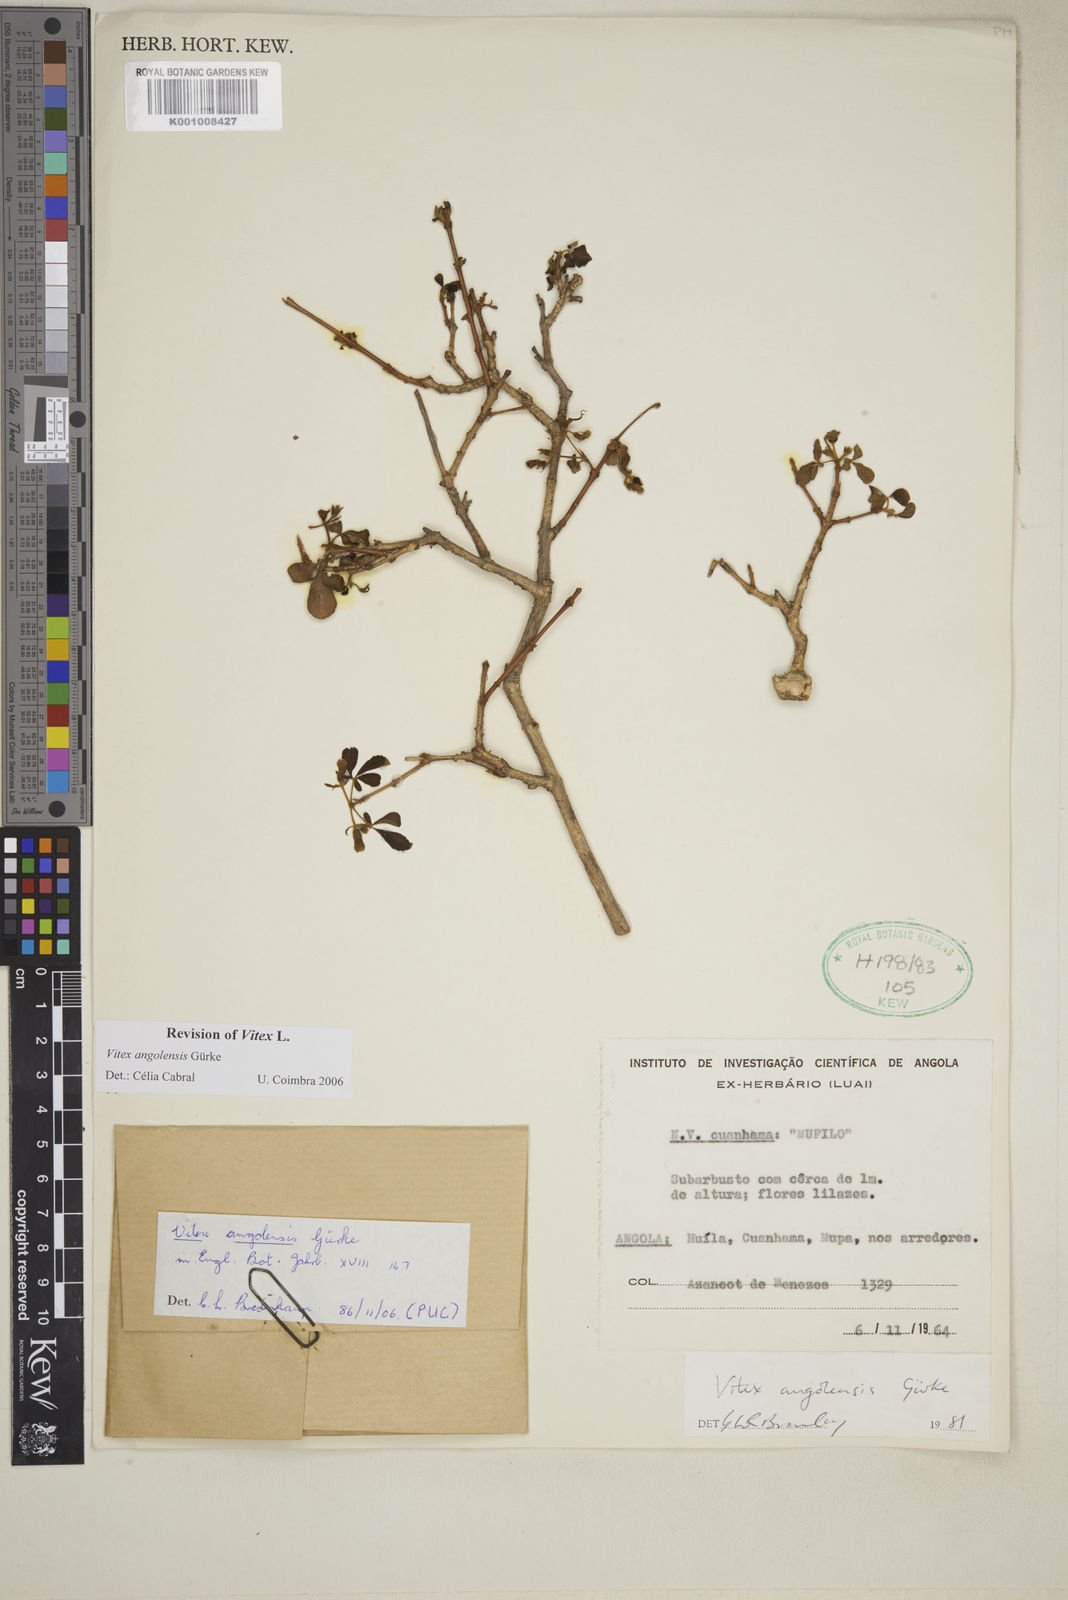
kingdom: Plantae
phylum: Tracheophyta
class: Magnoliopsida
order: Lamiales
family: Lamiaceae
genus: Vitex
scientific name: Vitex
